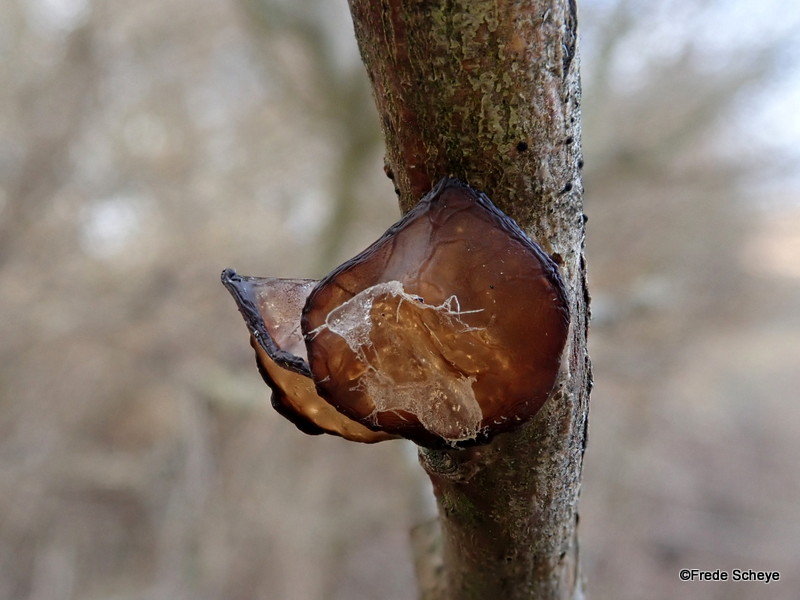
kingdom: Fungi
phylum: Basidiomycota
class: Agaricomycetes
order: Auriculariales
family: Auriculariaceae
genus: Exidia
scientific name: Exidia recisa
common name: pile-bævretop
